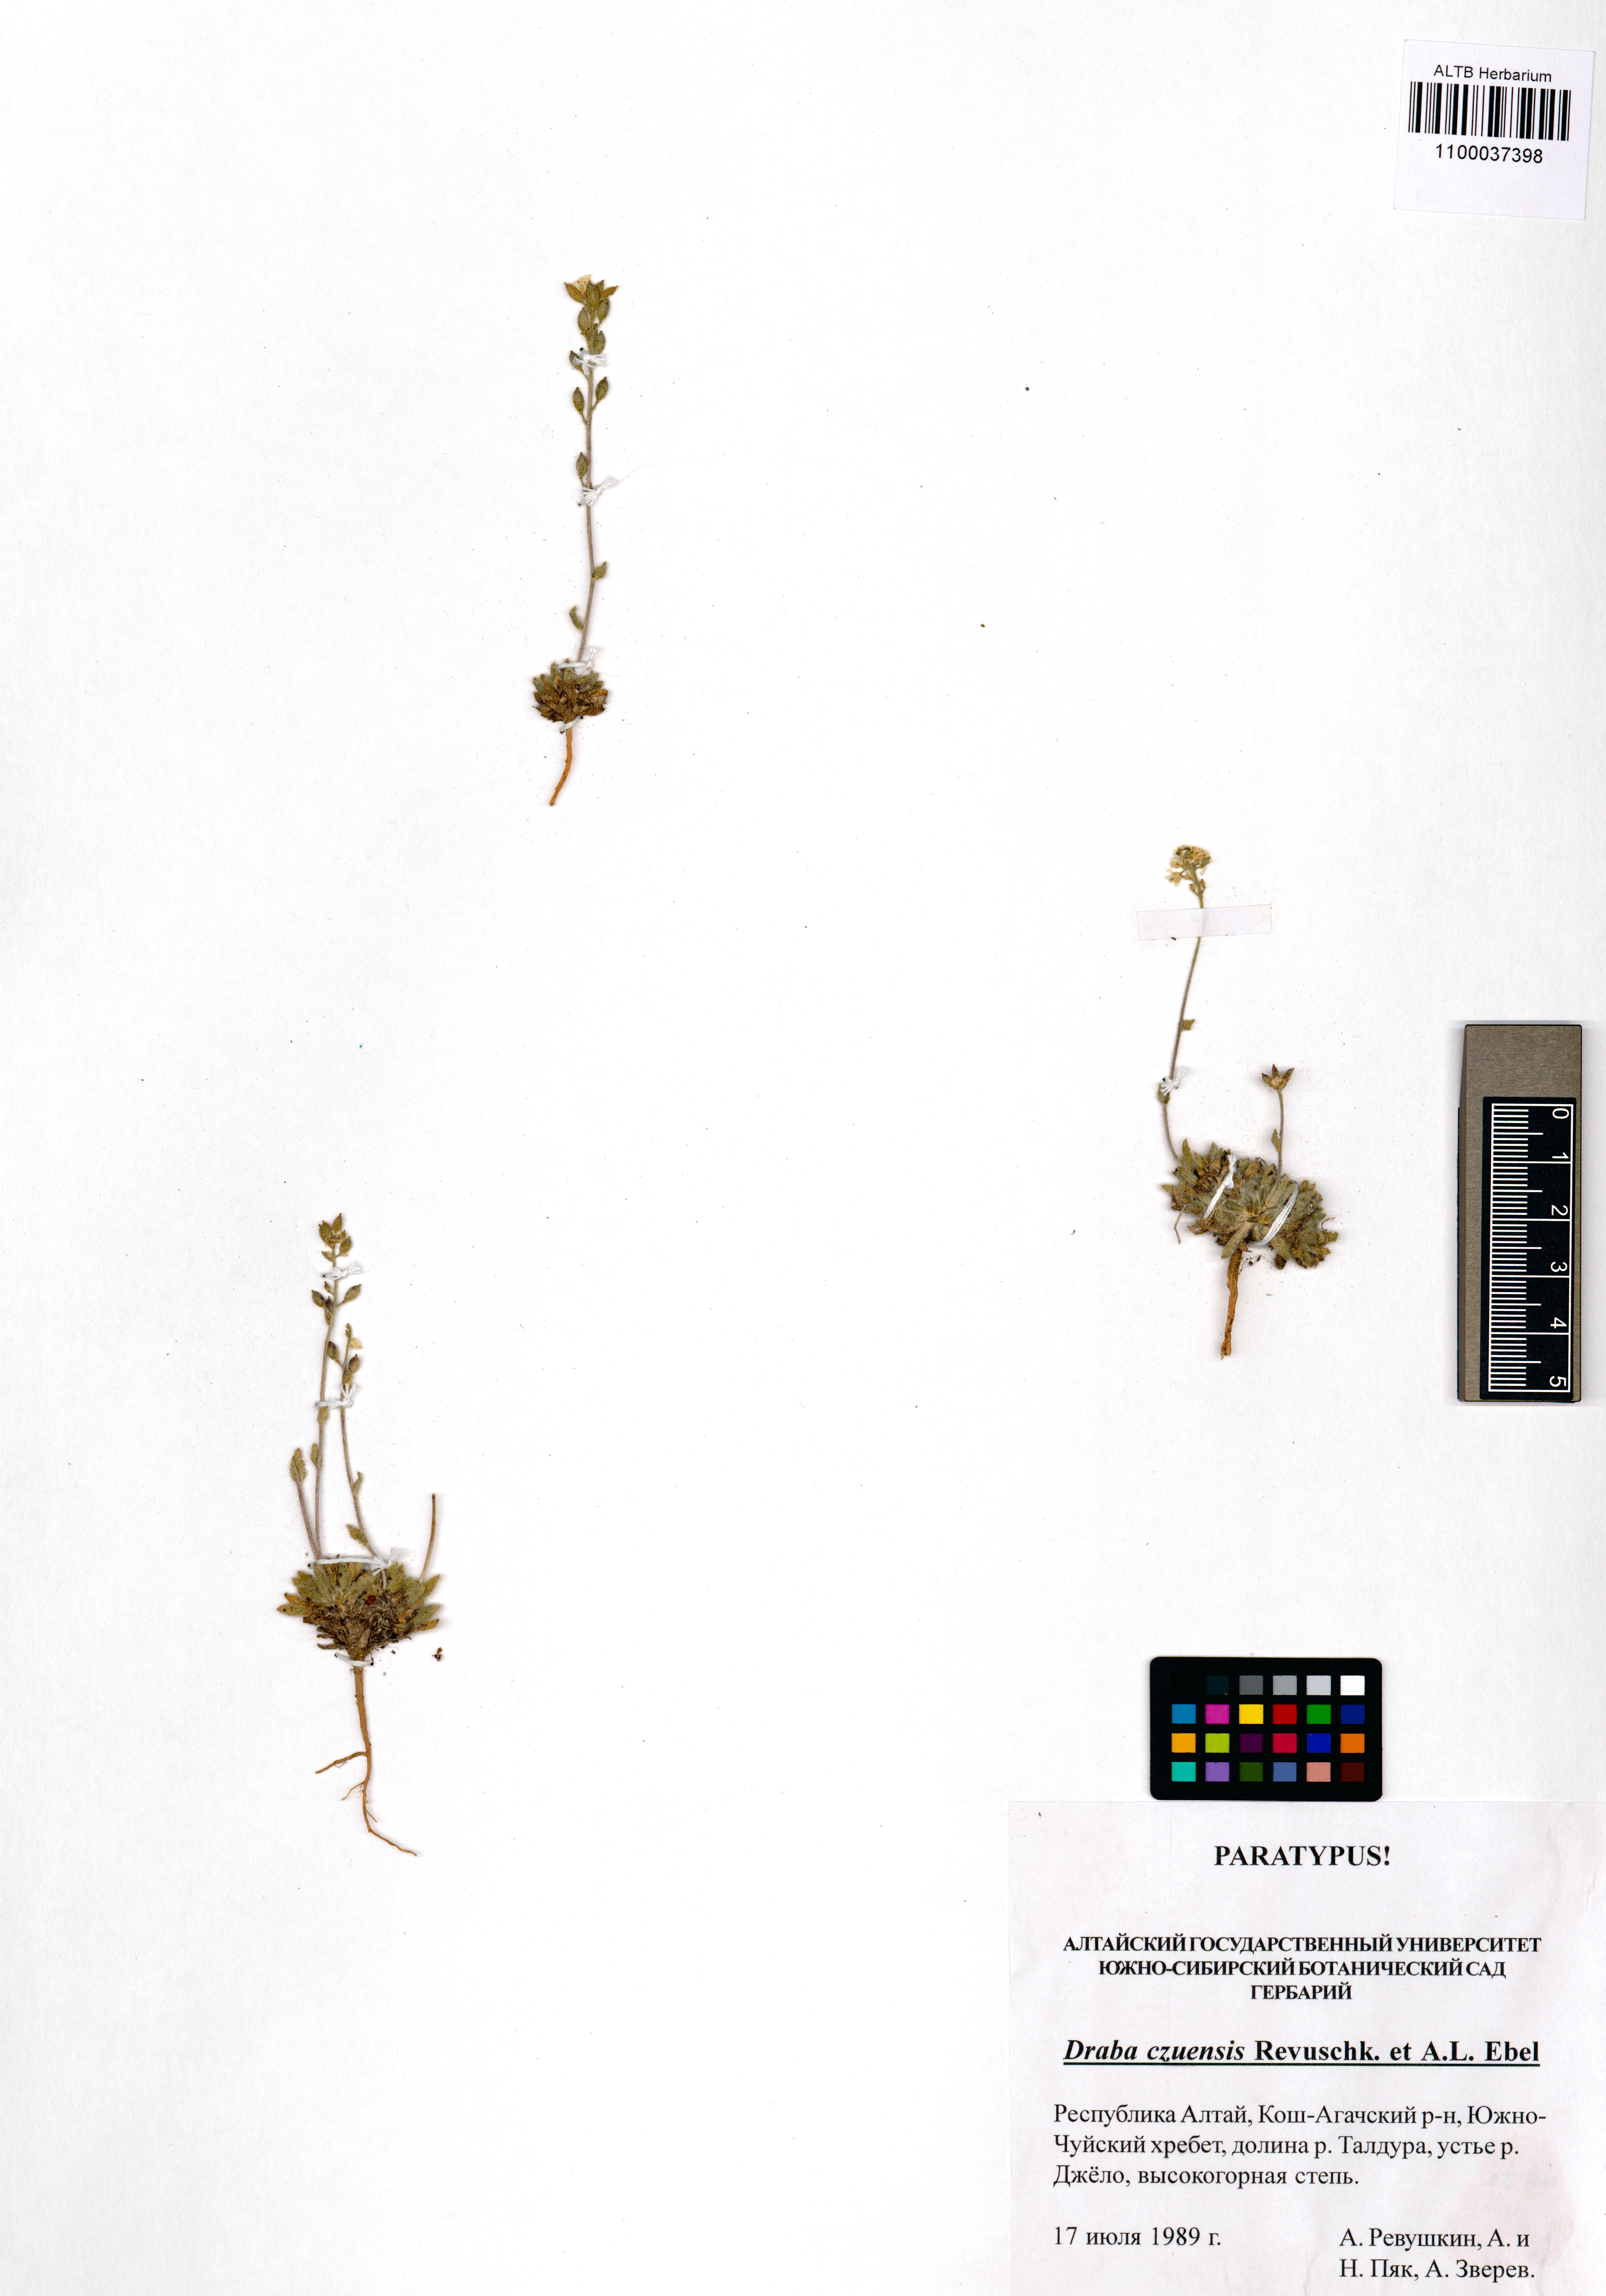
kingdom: Plantae
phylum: Tracheophyta
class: Magnoliopsida
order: Brassicales
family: Brassicaceae
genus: Draba
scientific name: Draba czuensis
